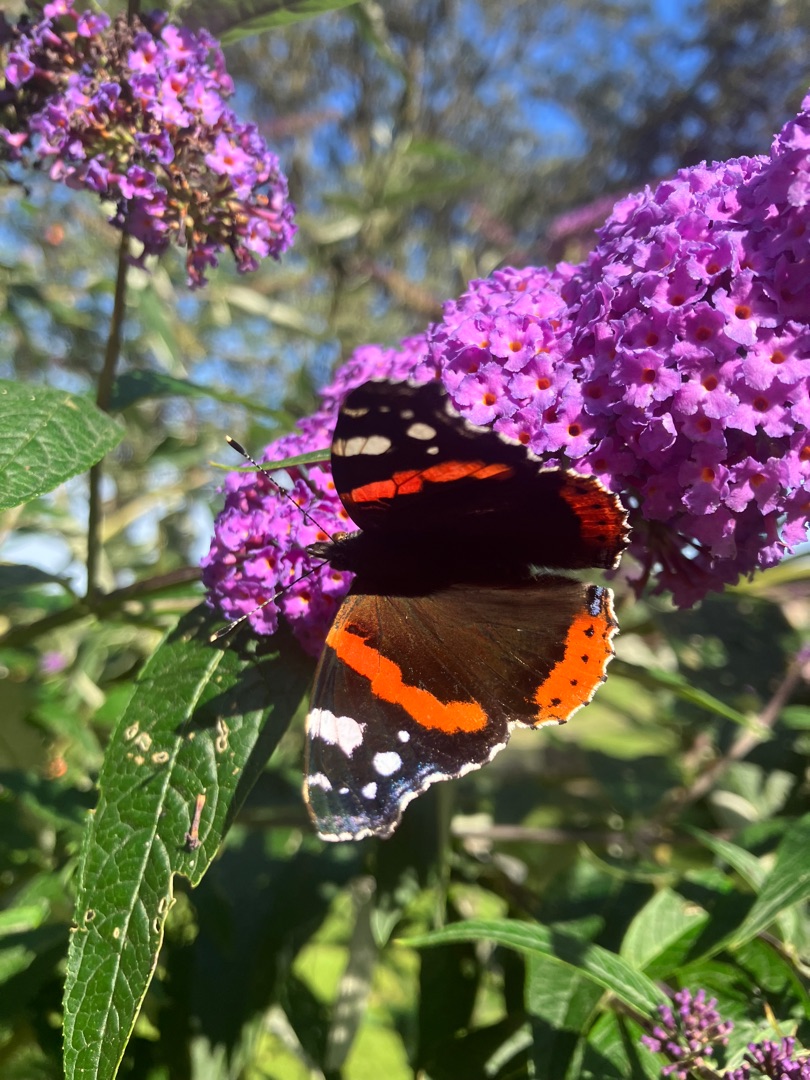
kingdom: Animalia
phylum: Arthropoda
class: Insecta
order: Lepidoptera
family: Nymphalidae
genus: Vanessa
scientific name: Vanessa atalanta
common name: Admiral
